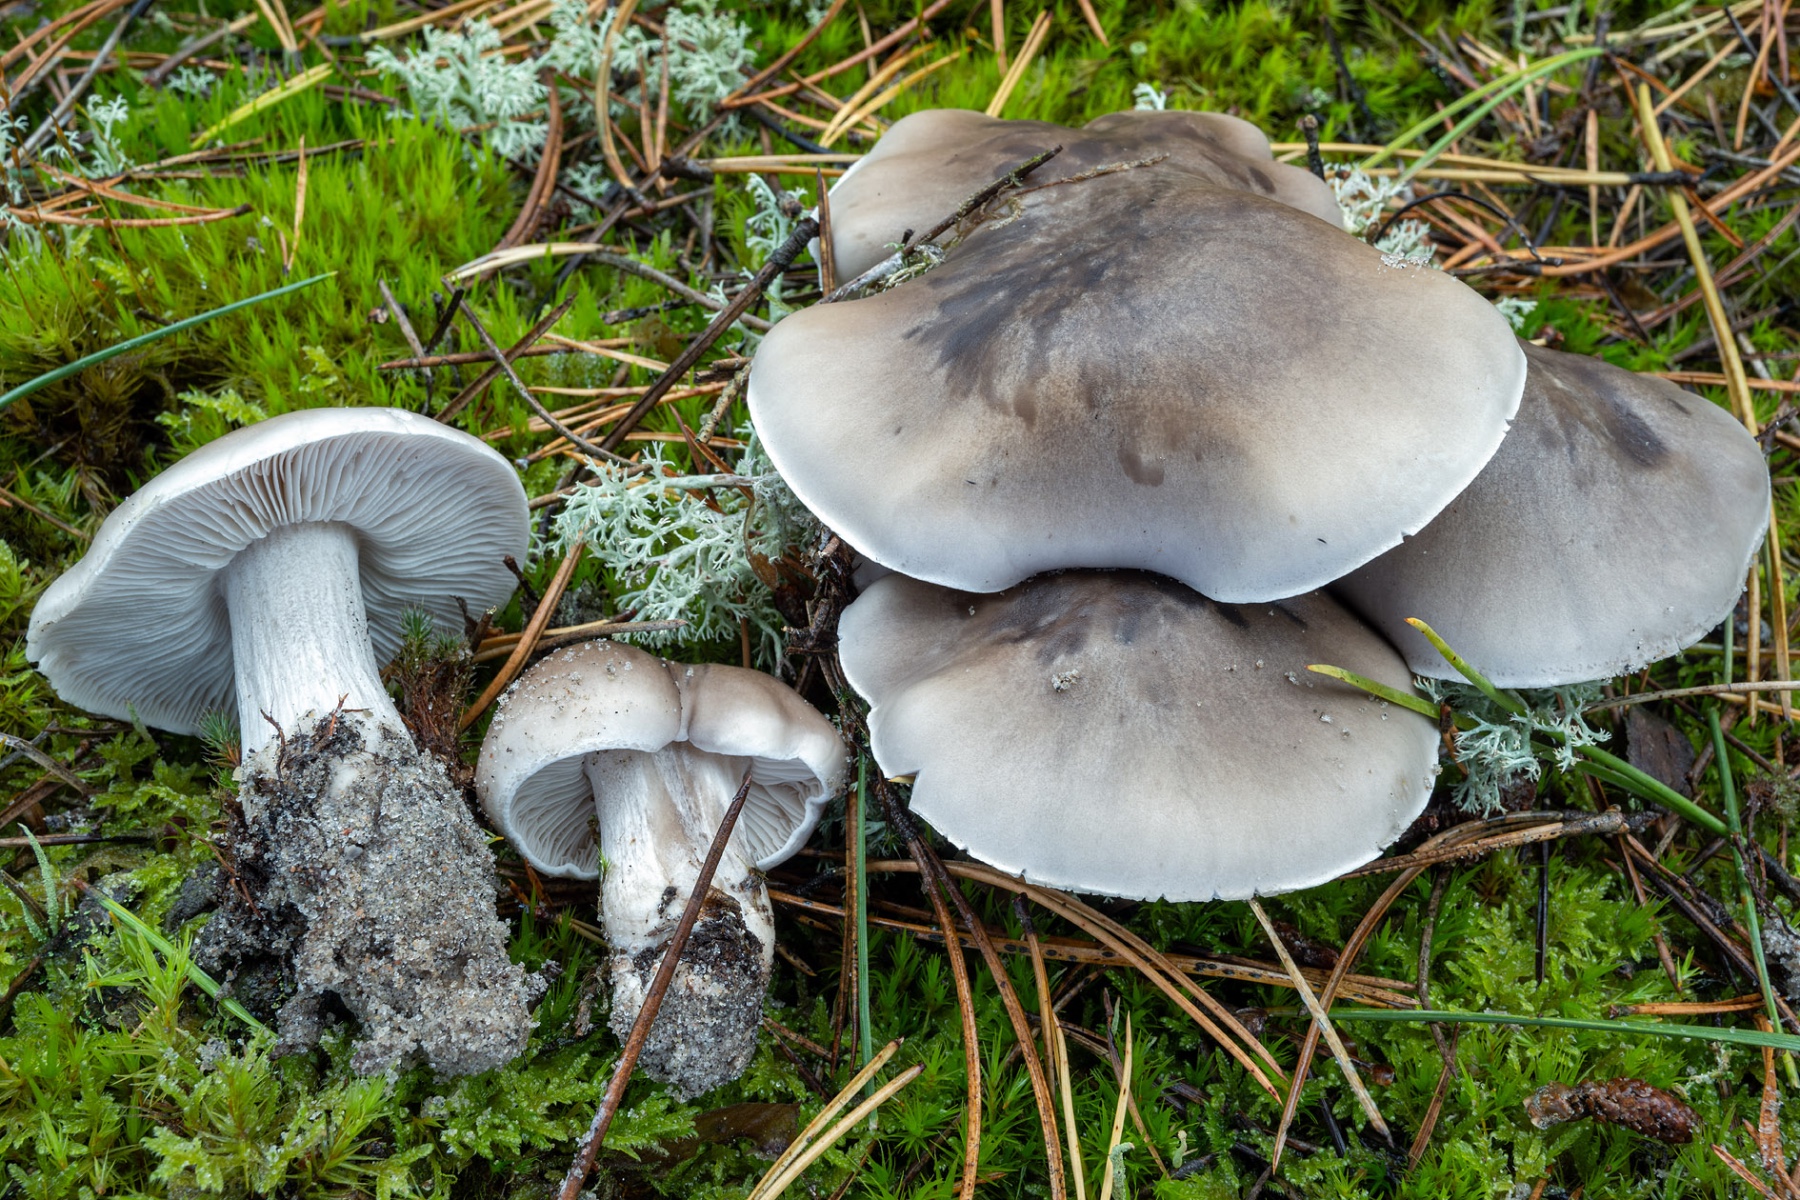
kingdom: Fungi
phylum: Basidiomycota
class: Agaricomycetes
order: Agaricales
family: Tricholomataceae
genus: Tricholoma
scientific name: Tricholoma sudum
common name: tør ridderhat
